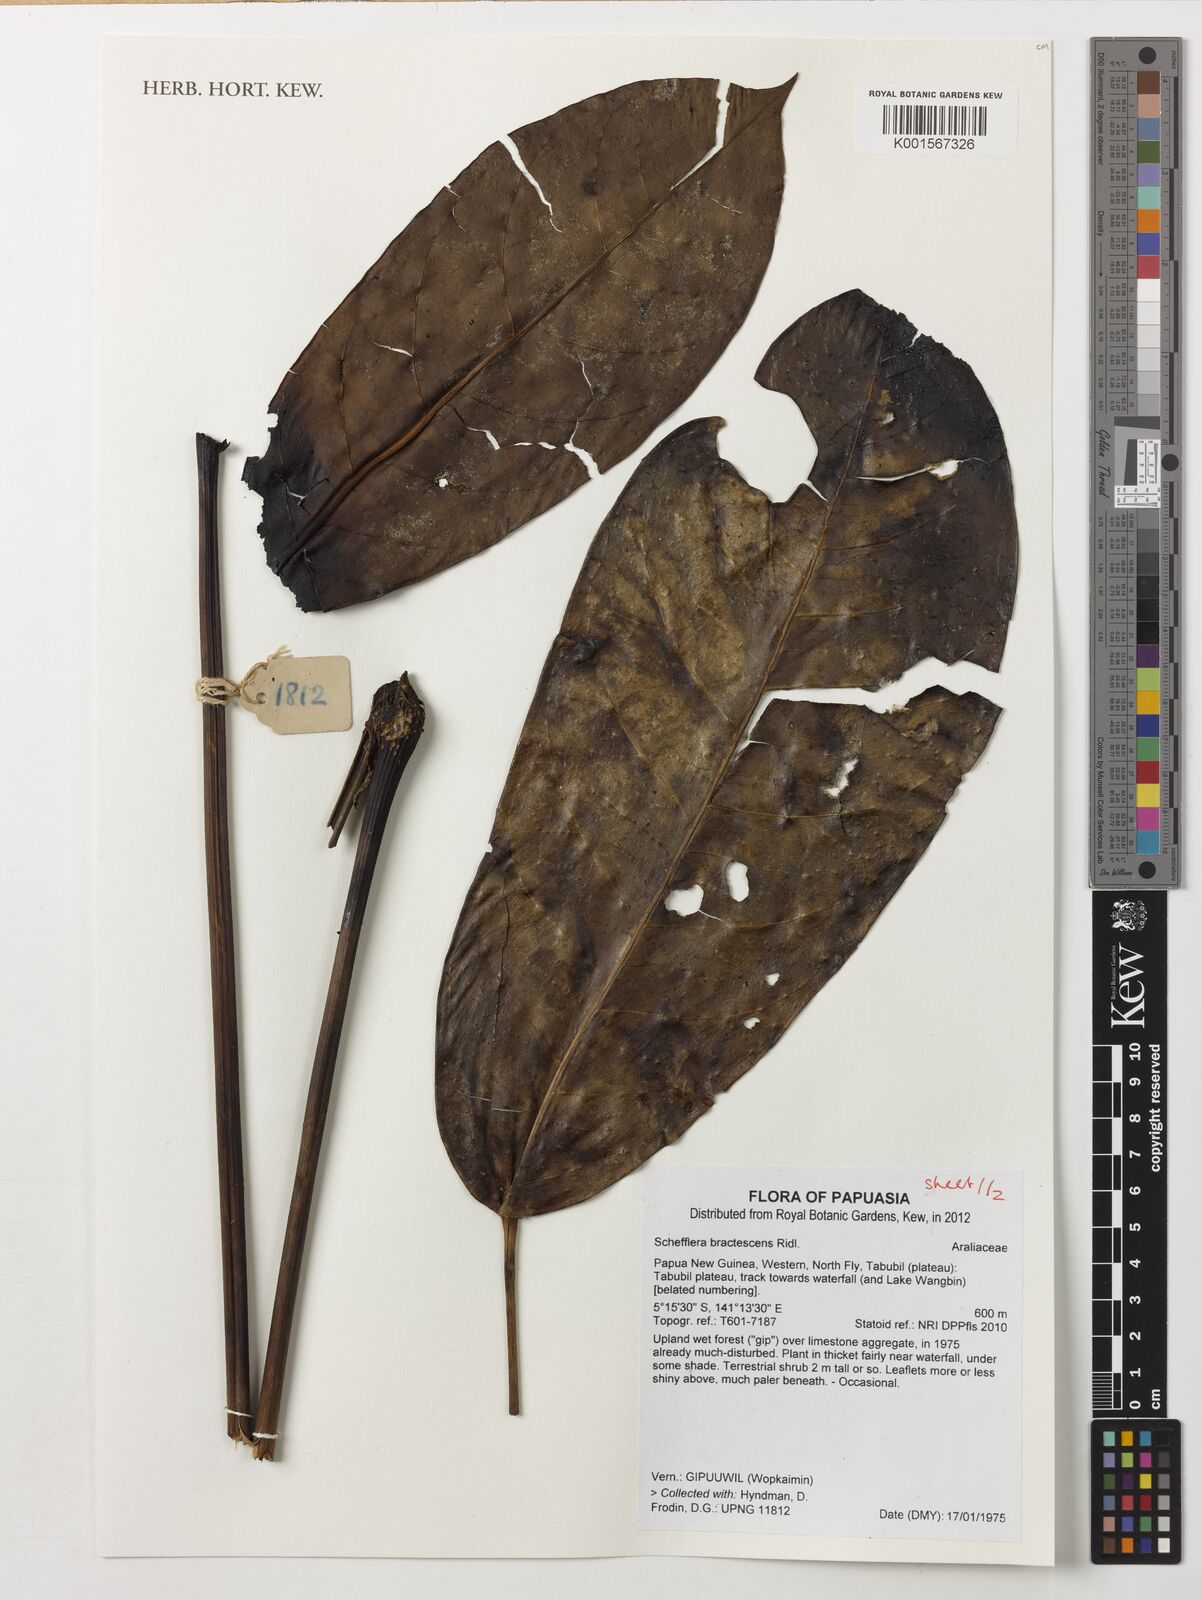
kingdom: Plantae
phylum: Tracheophyta
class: Magnoliopsida
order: Apiales
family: Araliaceae
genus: Heptapleurum
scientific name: Heptapleurum bractescens
